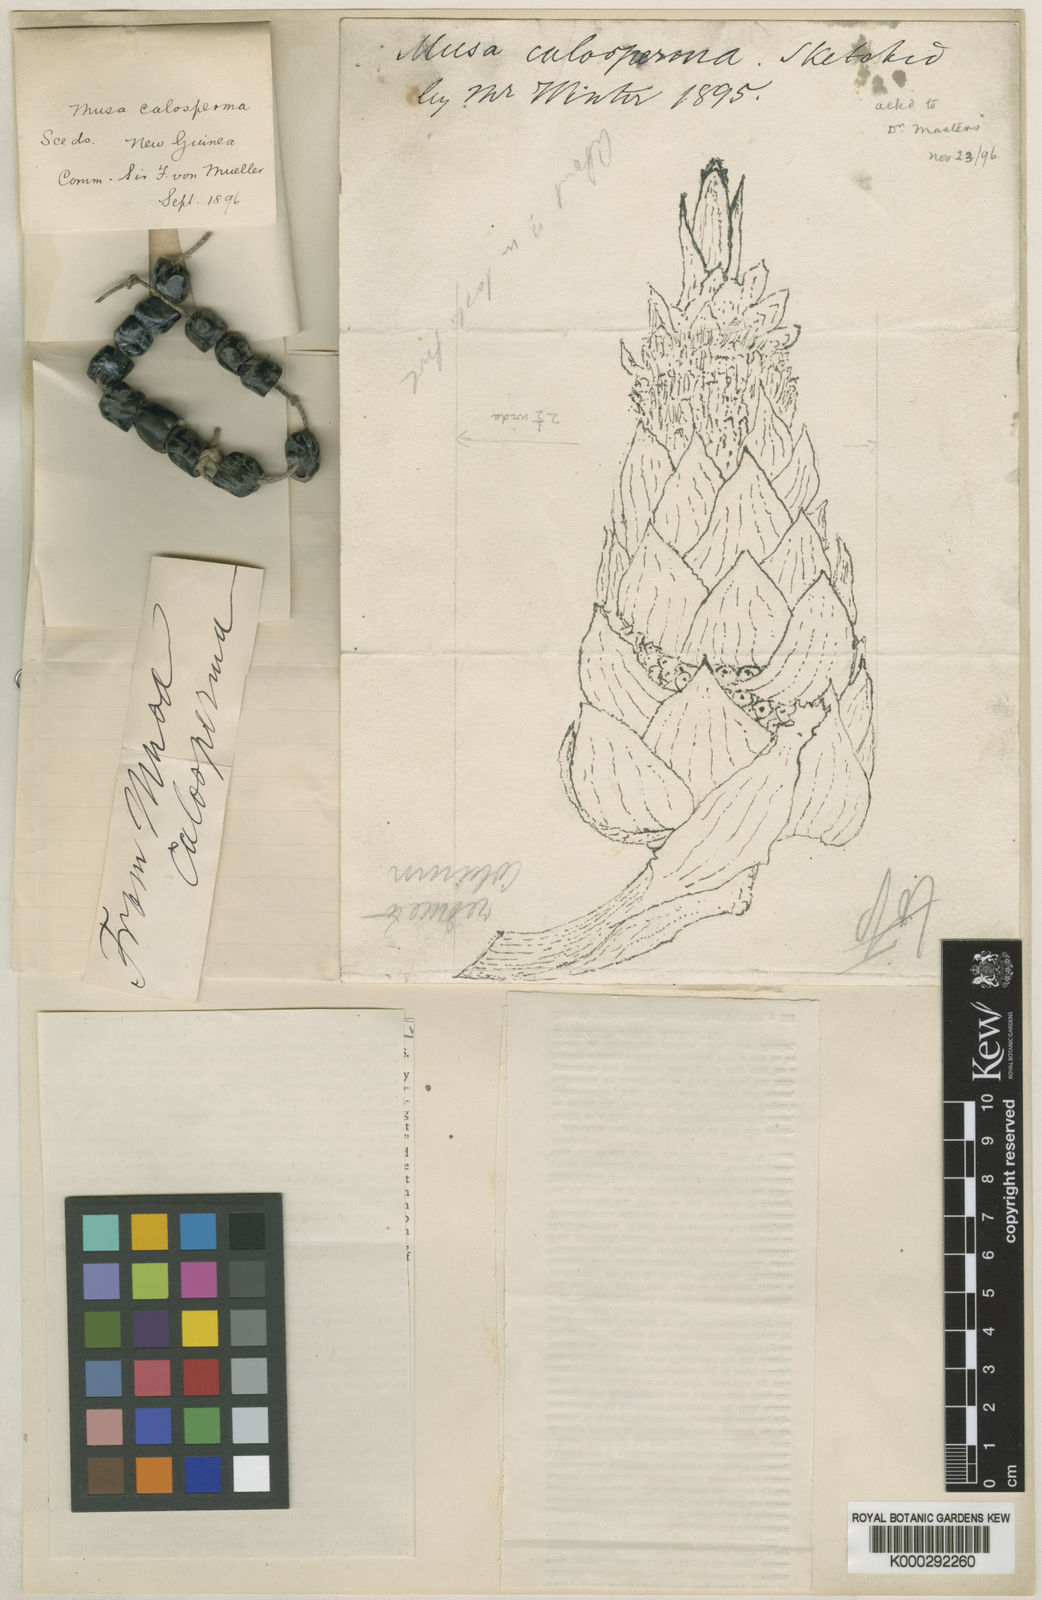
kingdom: Plantae
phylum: Tracheophyta
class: Liliopsida
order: Zingiberales
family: Musaceae
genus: Ensete
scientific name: Ensete glaucum
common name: Snow banana
